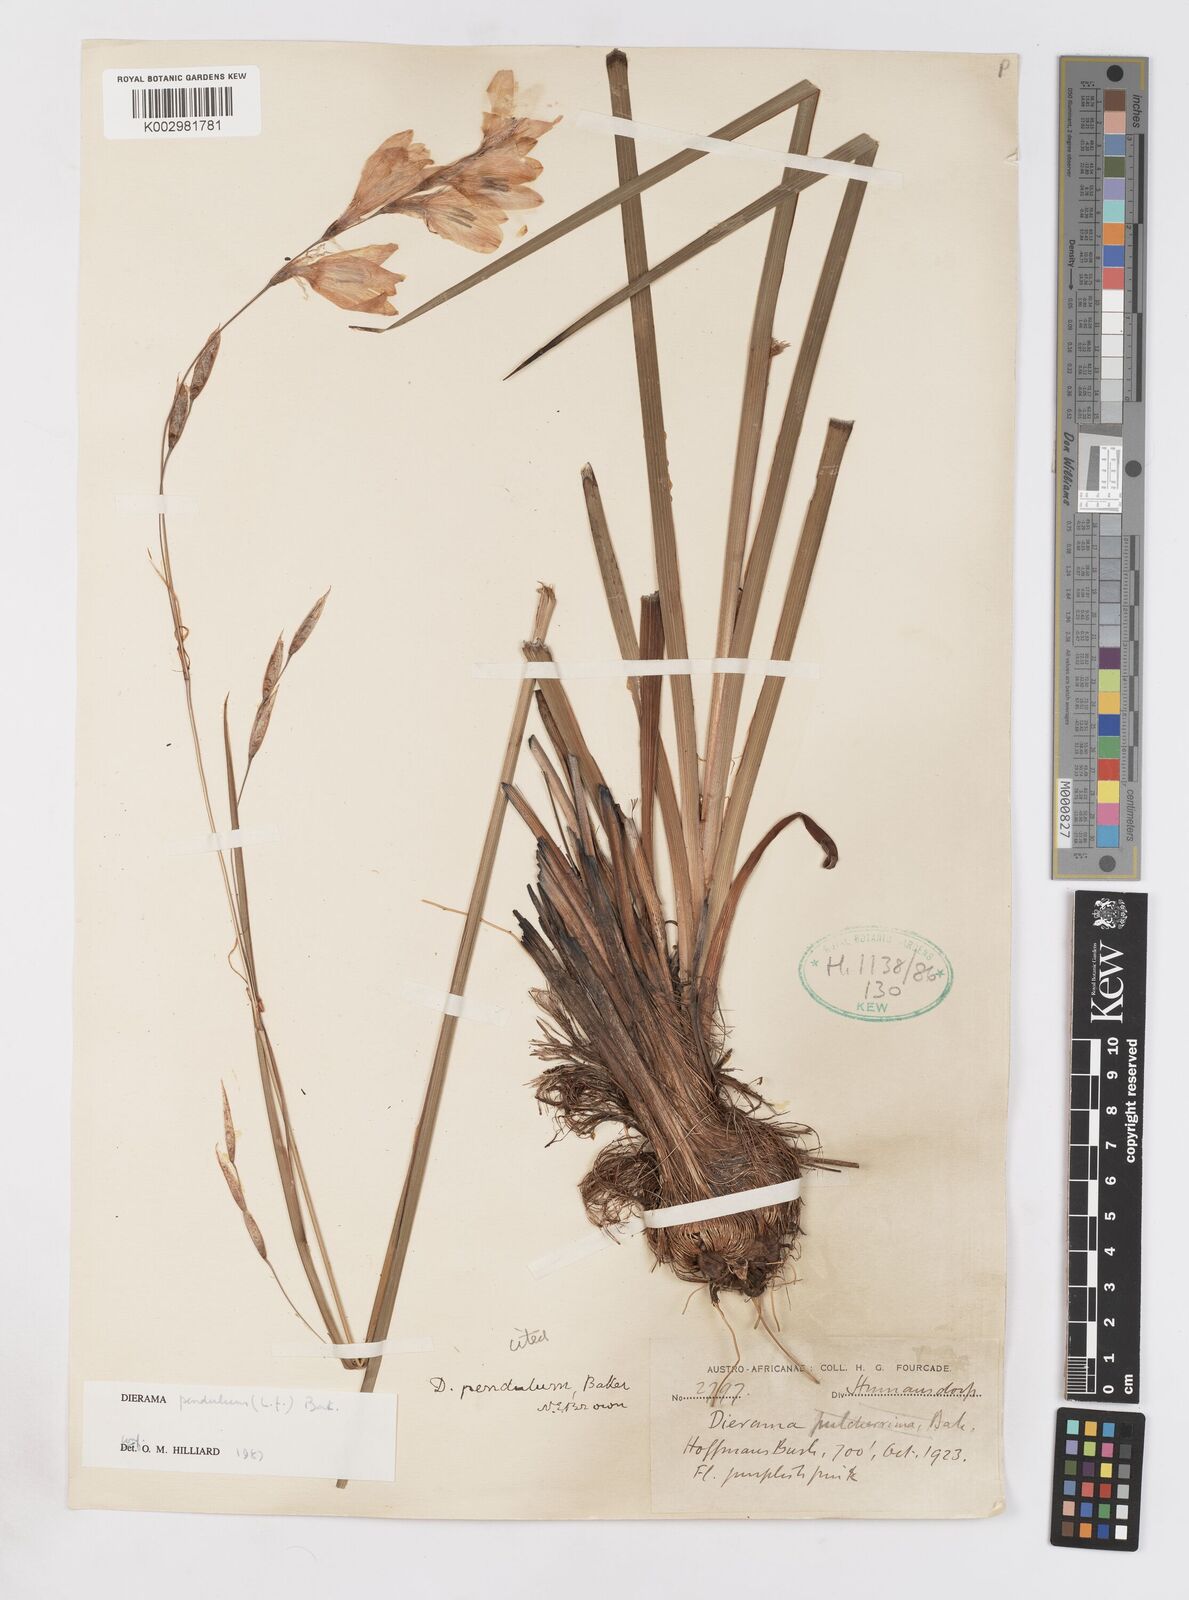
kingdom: Plantae
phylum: Tracheophyta
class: Liliopsida
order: Asparagales
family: Iridaceae
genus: Dierama
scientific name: Dierama pendulum
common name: Grassy-bell
